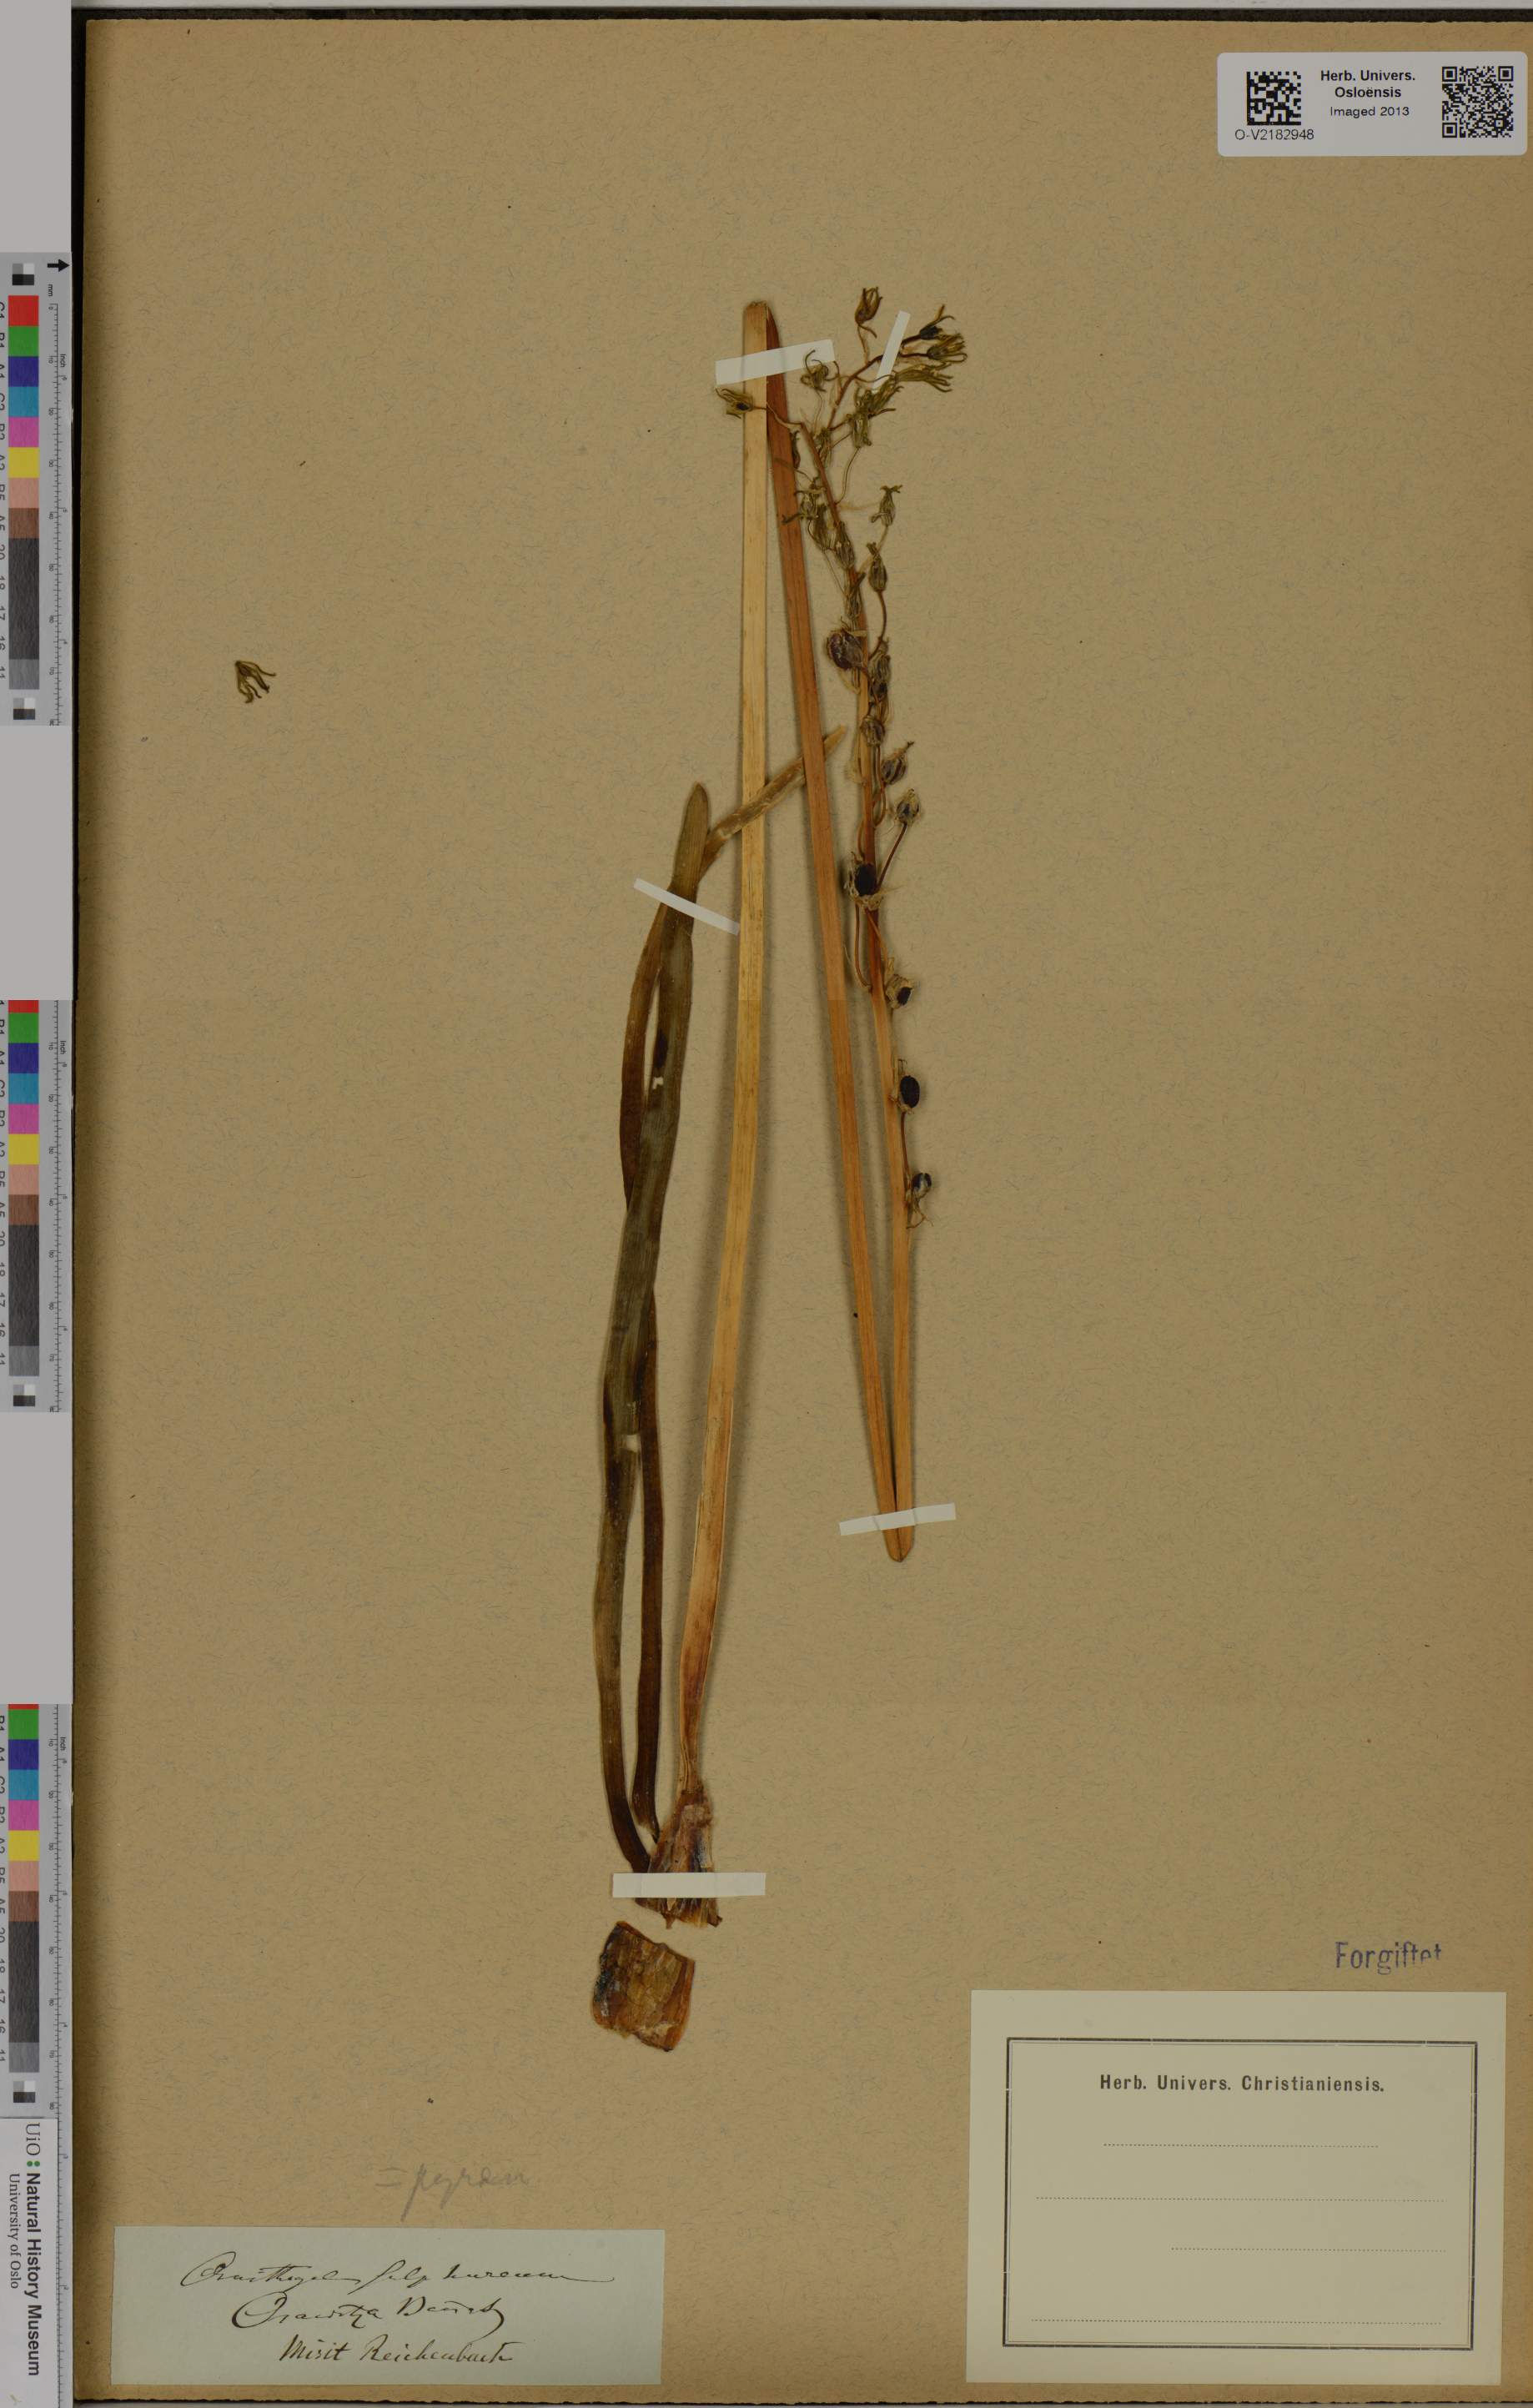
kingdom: Plantae
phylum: Tracheophyta
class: Liliopsida
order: Asparagales
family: Asparagaceae
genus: Ornithogalum
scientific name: Ornithogalum pyrenaicum
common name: Spiked star-of-bethlehem
